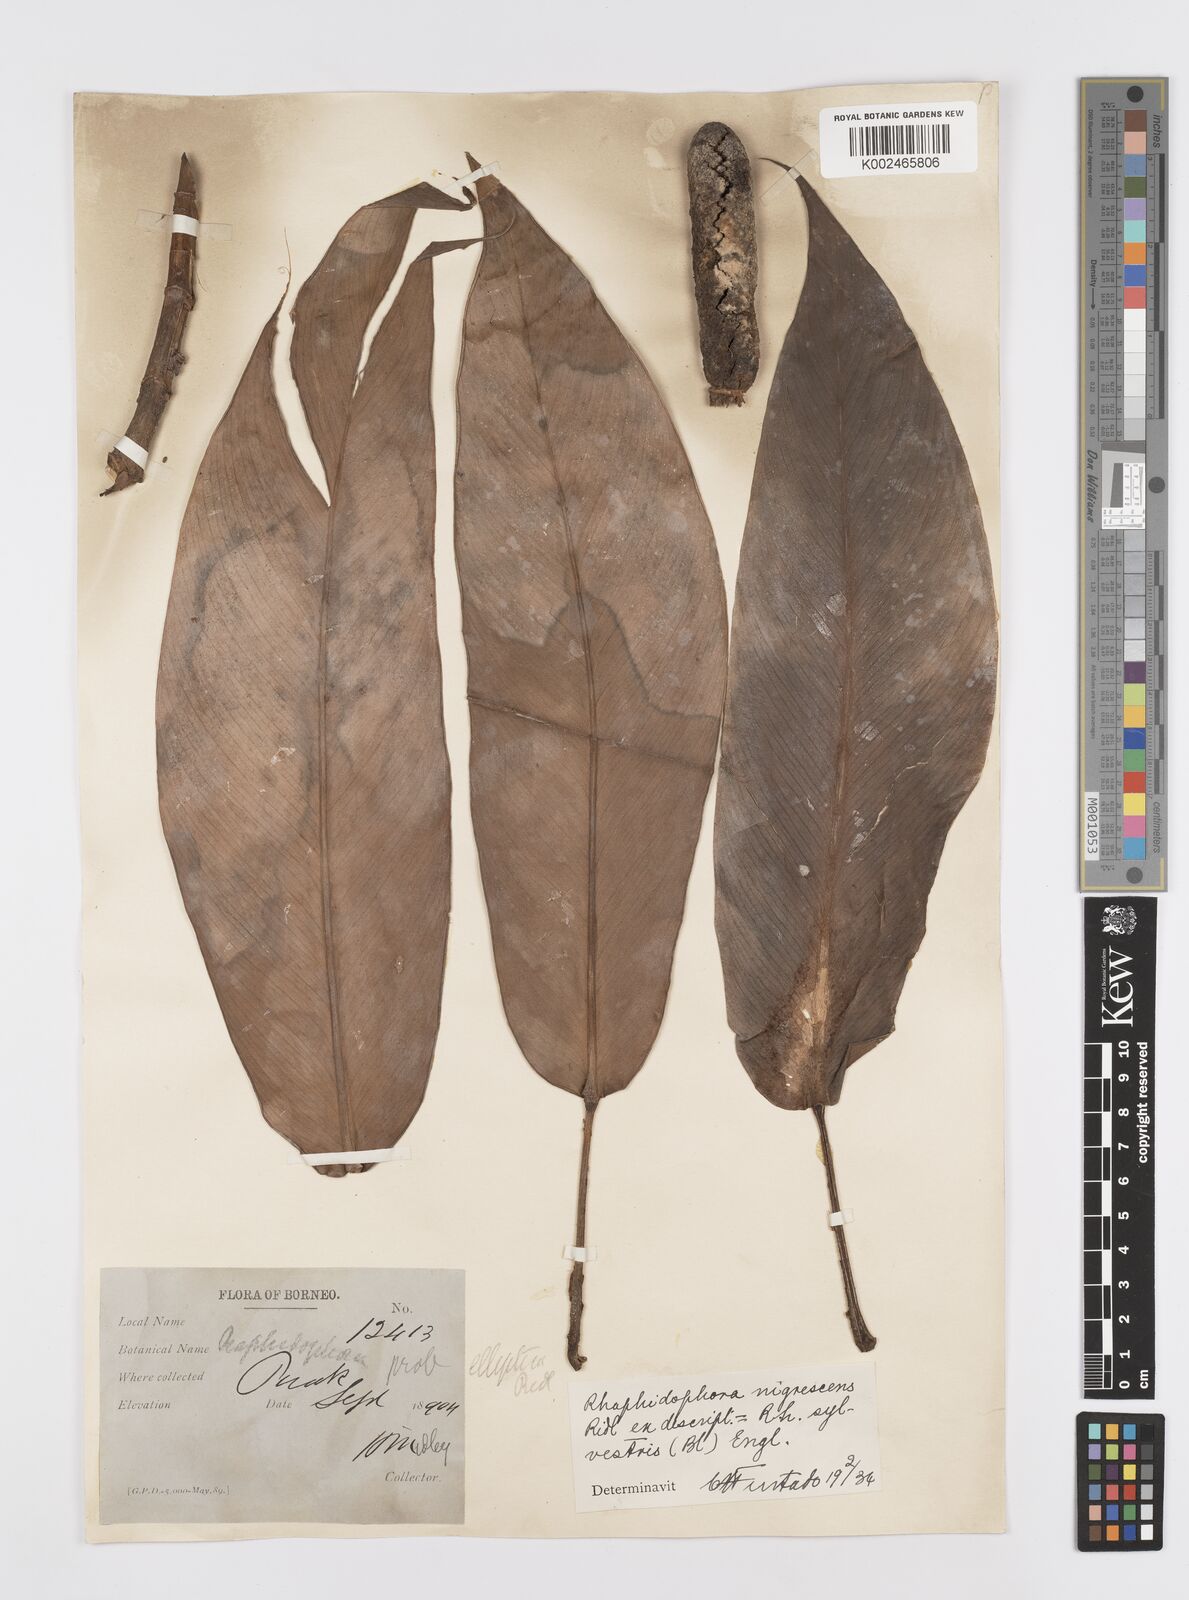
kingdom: Plantae
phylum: Tracheophyta
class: Liliopsida
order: Alismatales
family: Araceae
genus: Rhaphidophora
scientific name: Rhaphidophora sylvestris
